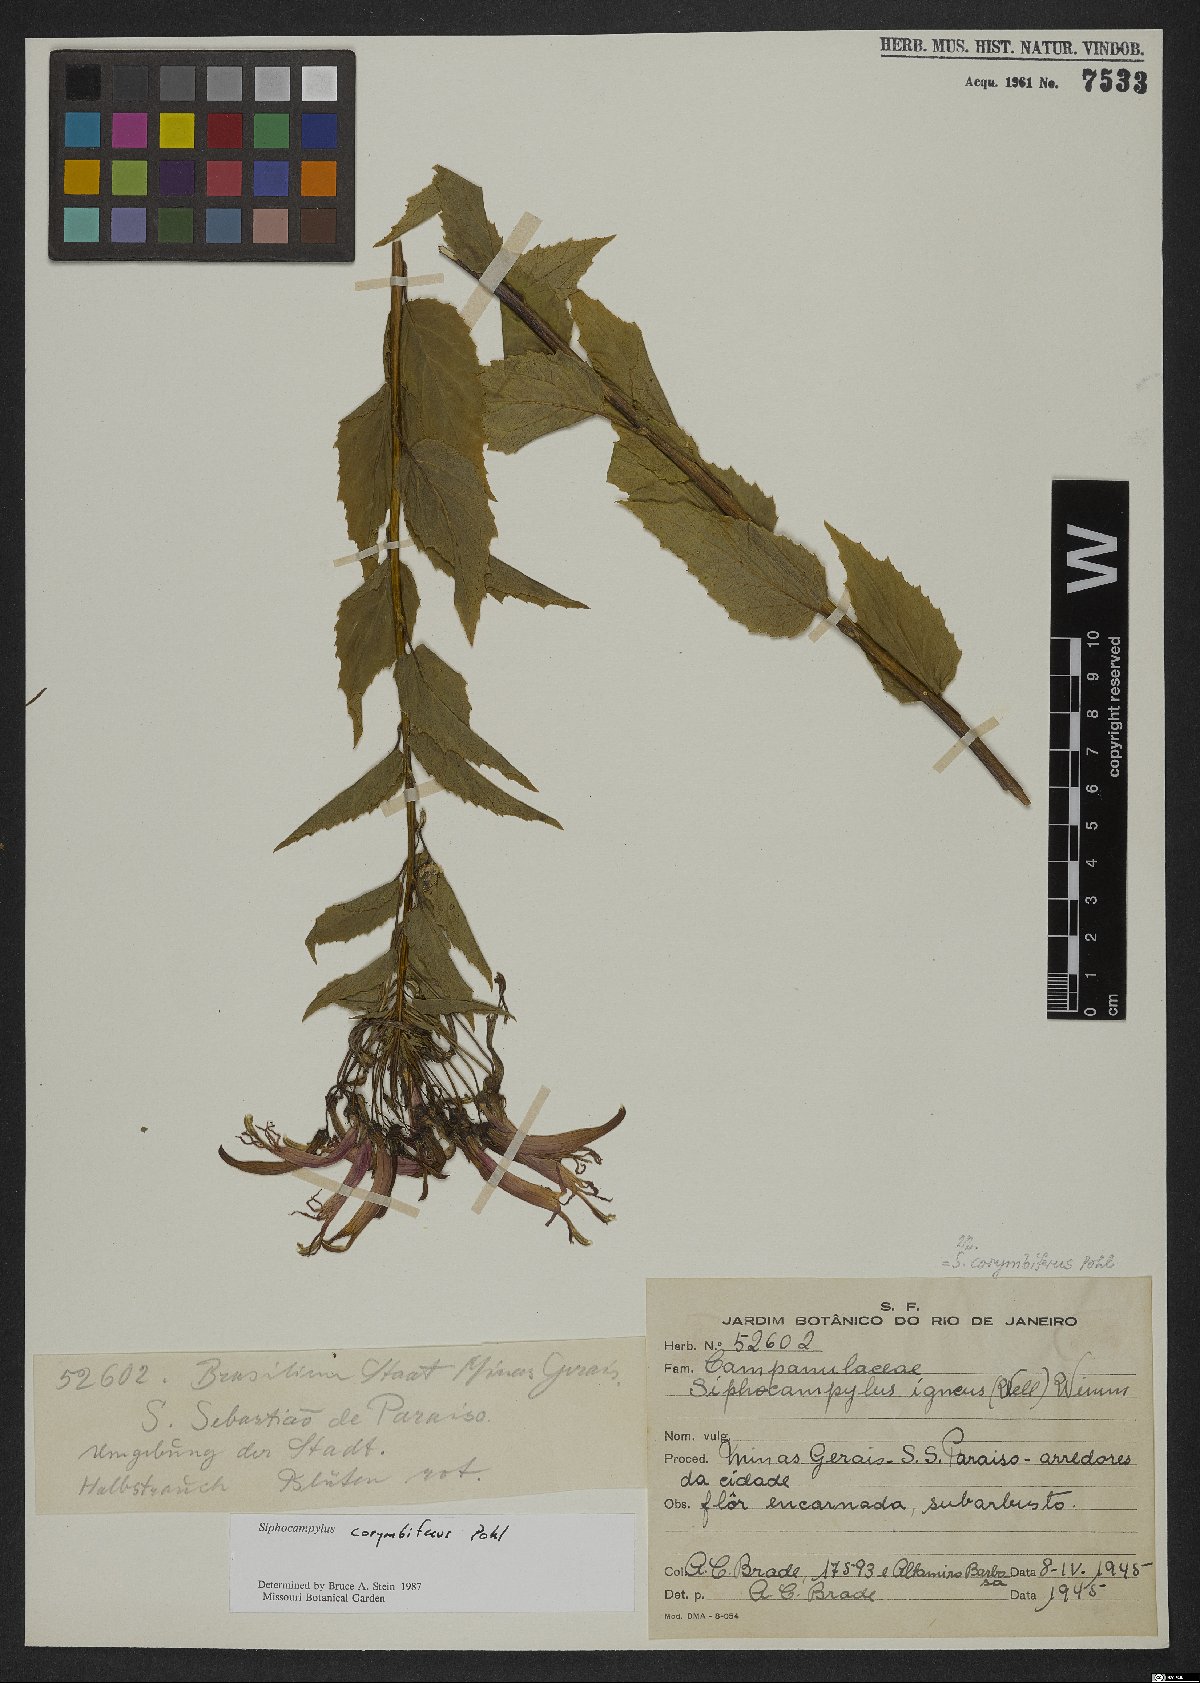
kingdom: Plantae
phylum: Tracheophyta
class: Magnoliopsida
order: Asterales
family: Campanulaceae
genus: Siphocampylus
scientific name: Siphocampylus corymbiferus
